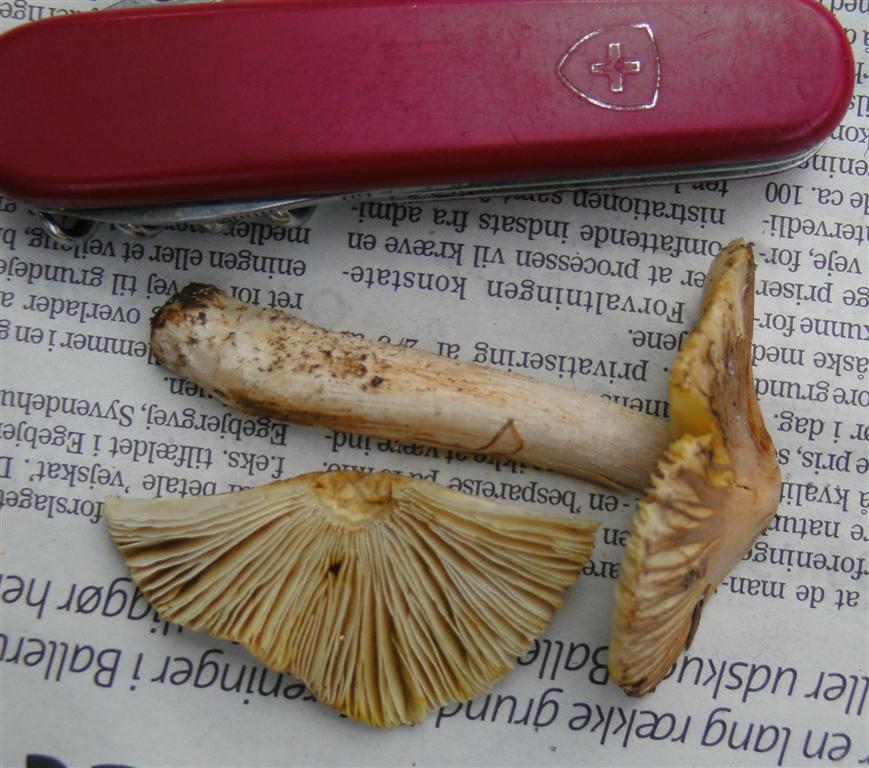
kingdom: Fungi
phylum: Basidiomycota
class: Agaricomycetes
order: Agaricales
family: Inocybaceae
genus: Pseudosperma
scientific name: Pseudosperma rimosum
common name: gulbladet trævlhat
